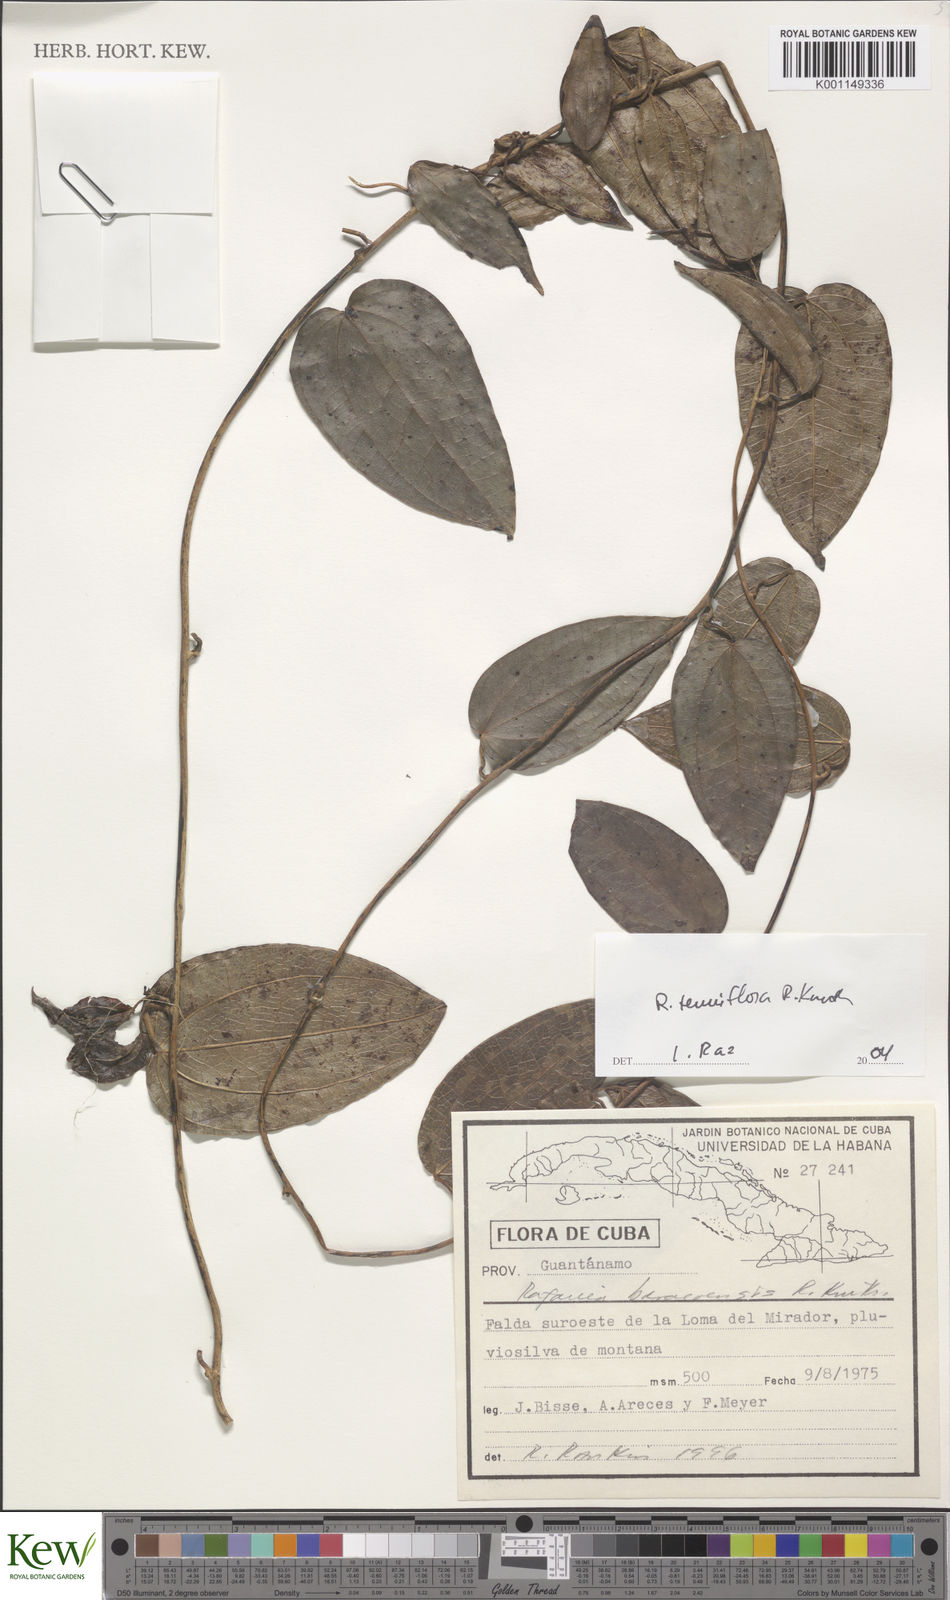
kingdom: Plantae
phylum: Tracheophyta
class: Liliopsida
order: Dioscoreales
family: Dioscoreaceae
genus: Dioscorea
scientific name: Dioscorea bulbifera
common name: Air yam
